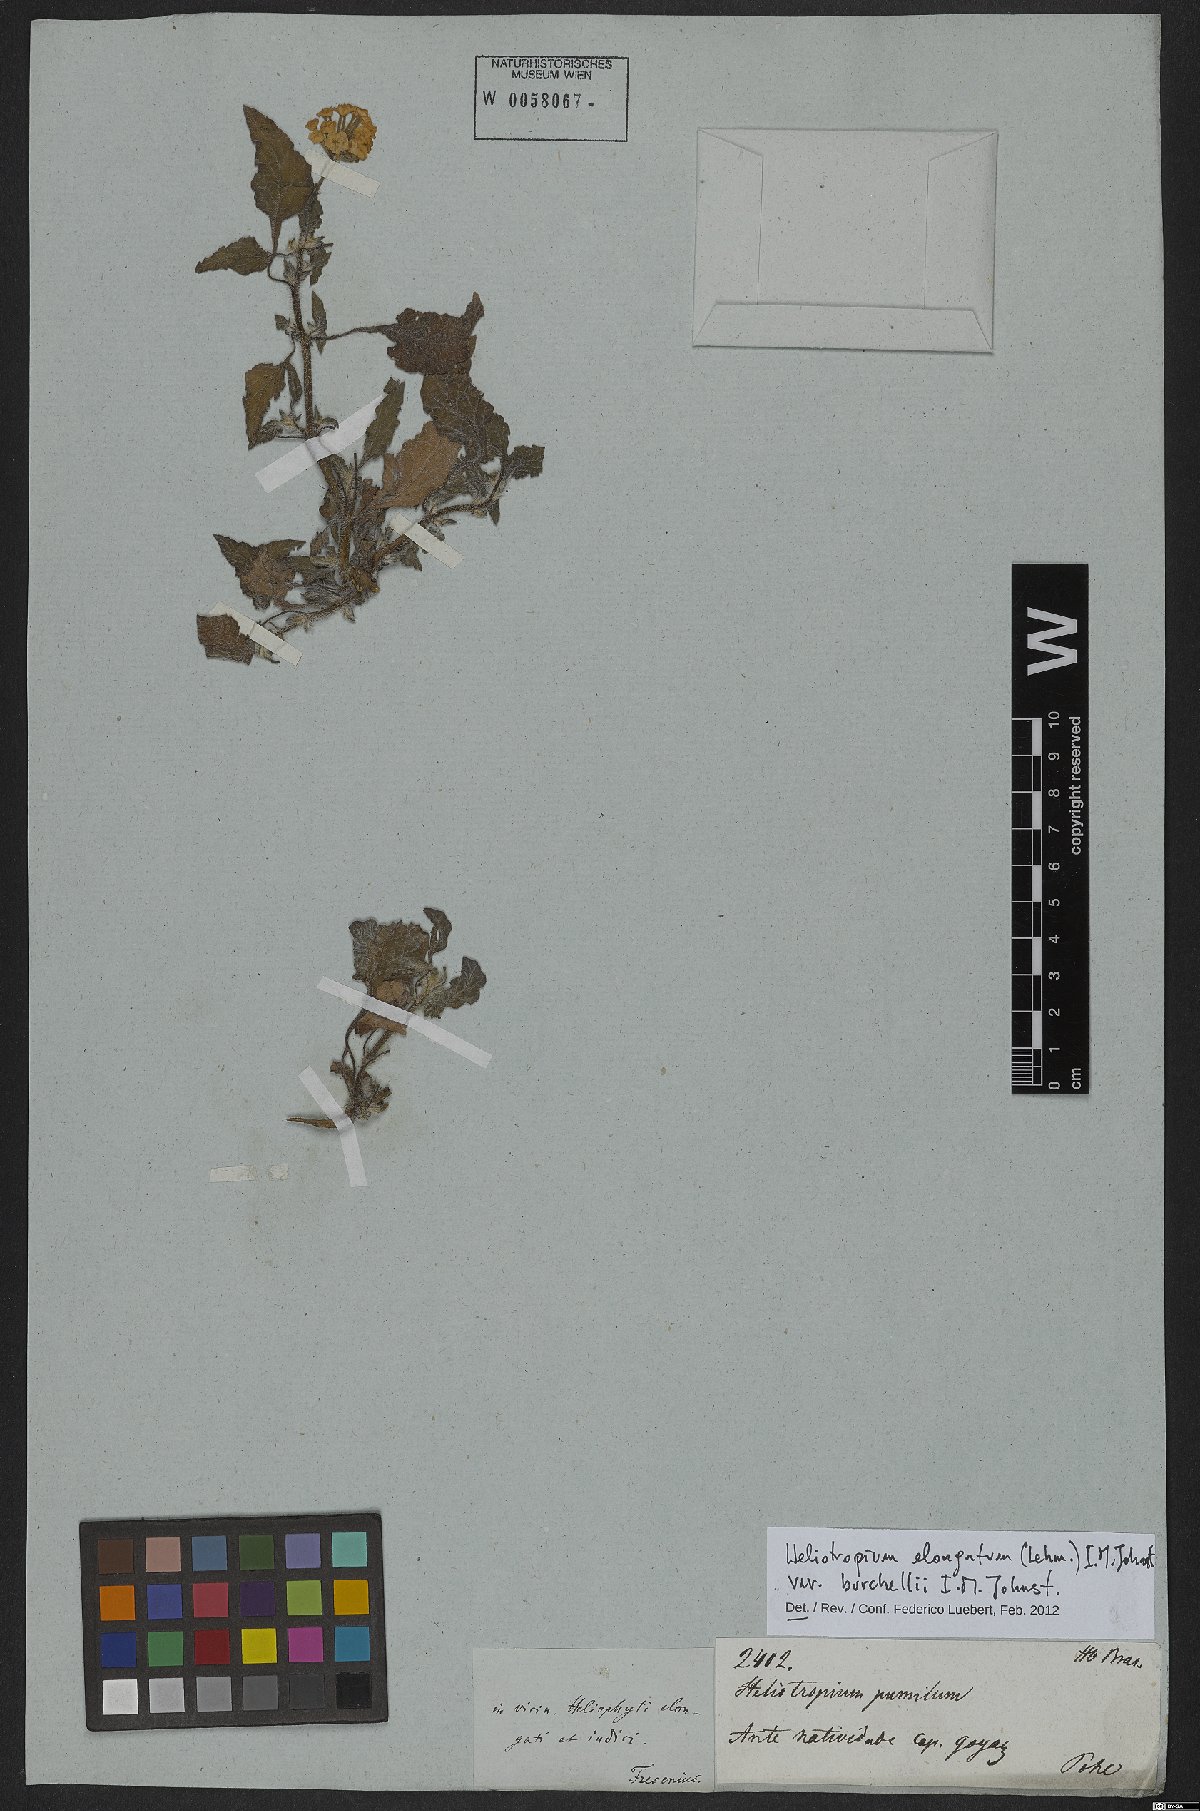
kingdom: Plantae
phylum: Tracheophyta
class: Magnoliopsida
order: Boraginales
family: Heliotropiaceae
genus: Heliotropium
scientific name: Heliotropium elongatum
